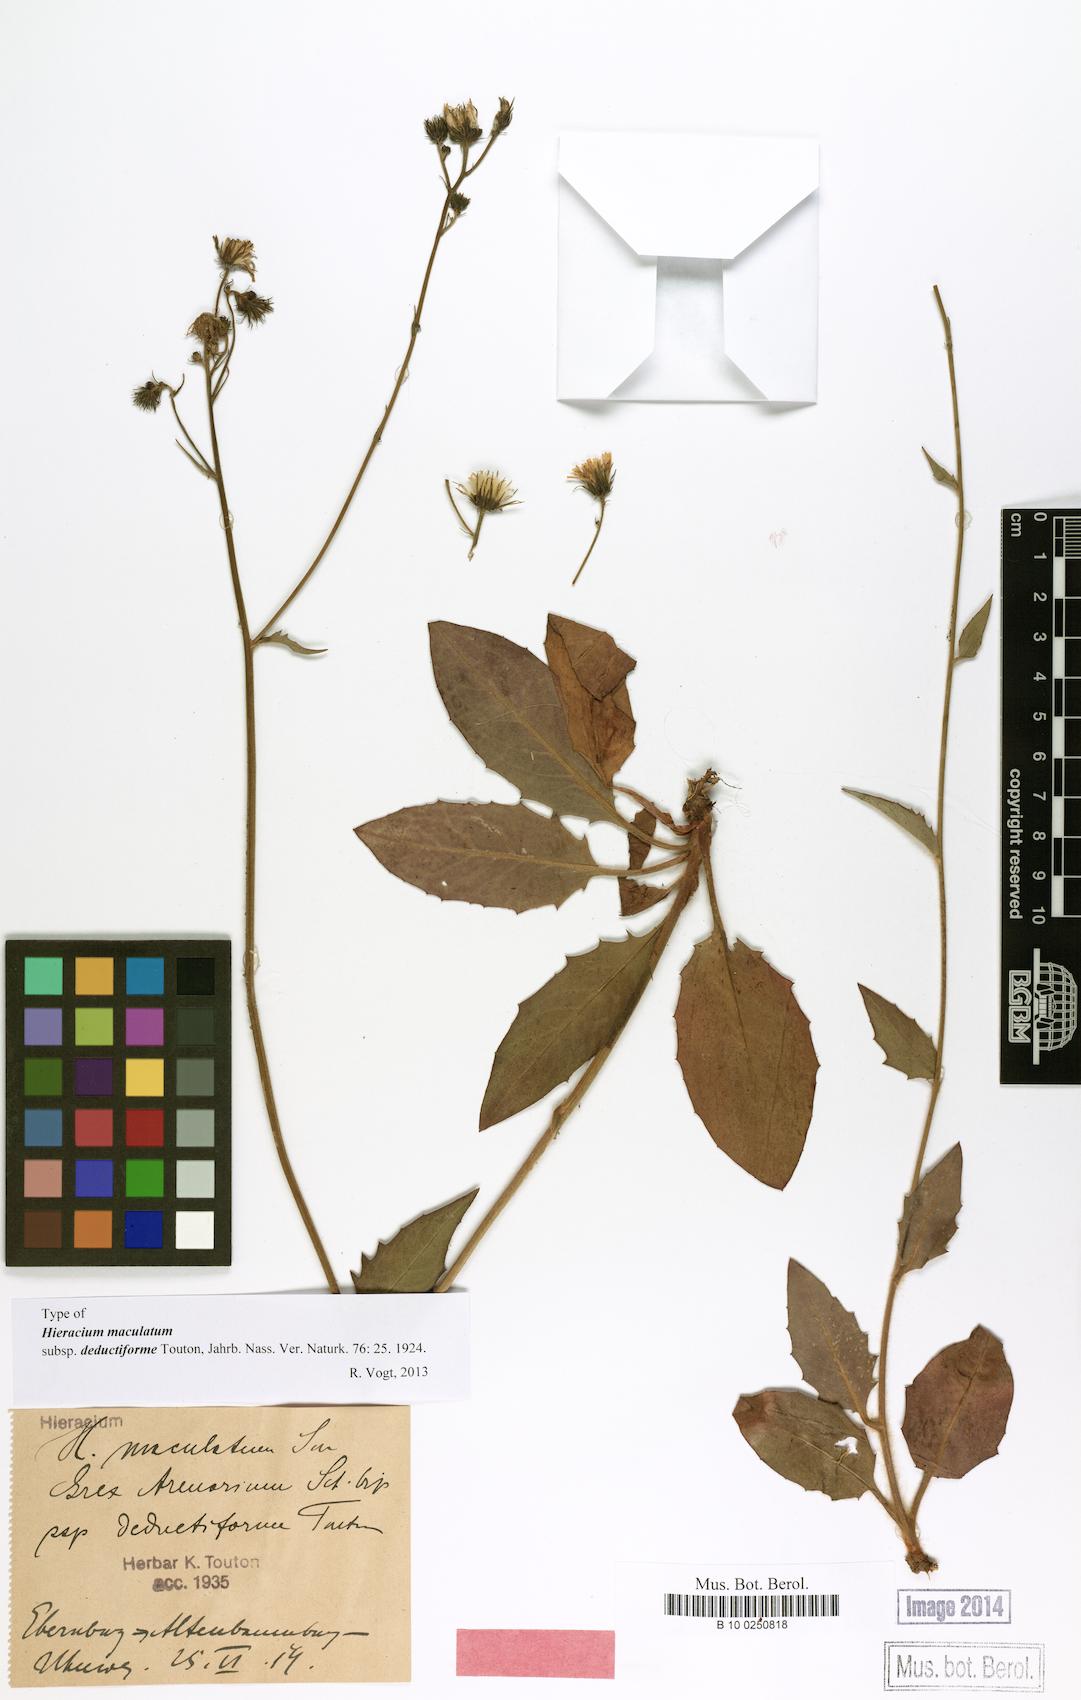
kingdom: Plantae
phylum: Tracheophyta
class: Magnoliopsida
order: Asterales
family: Asteraceae
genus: Hieracium
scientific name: Hieracium maculatum
